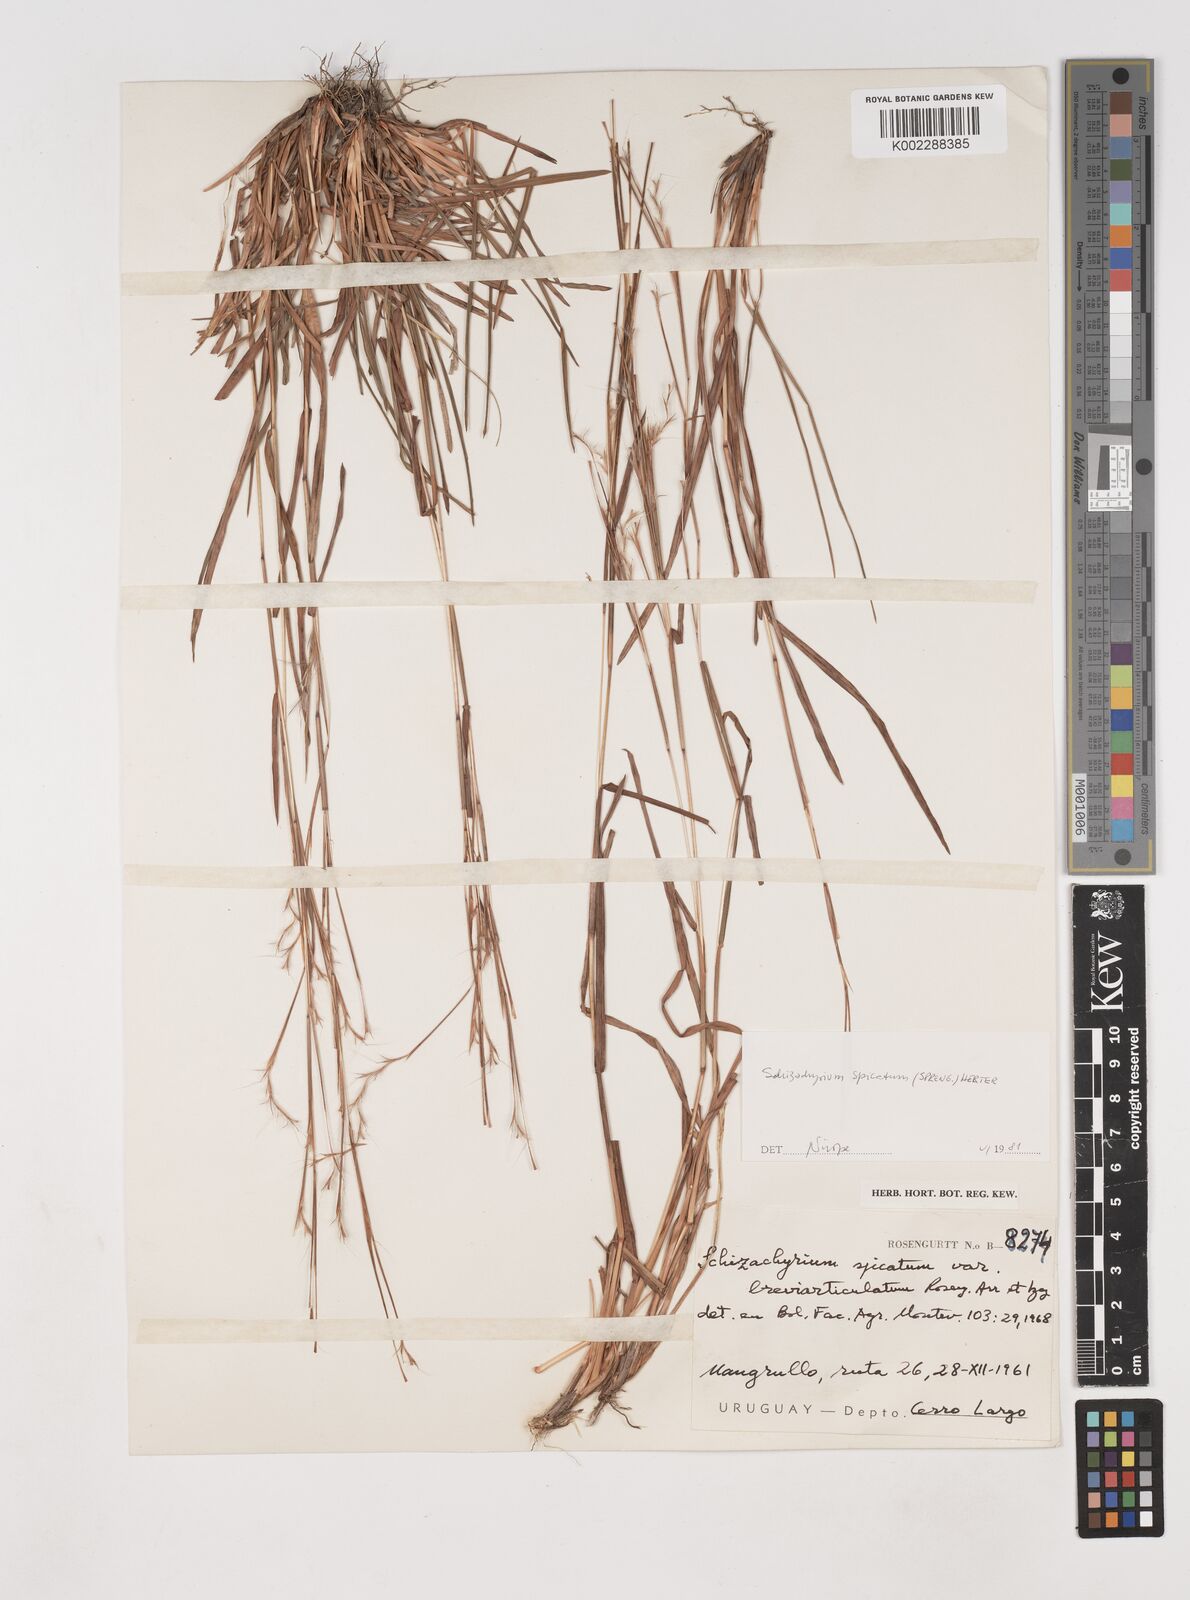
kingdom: Plantae
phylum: Tracheophyta
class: Liliopsida
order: Poales
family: Poaceae
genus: Schizachyrium
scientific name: Schizachyrium spicatum
